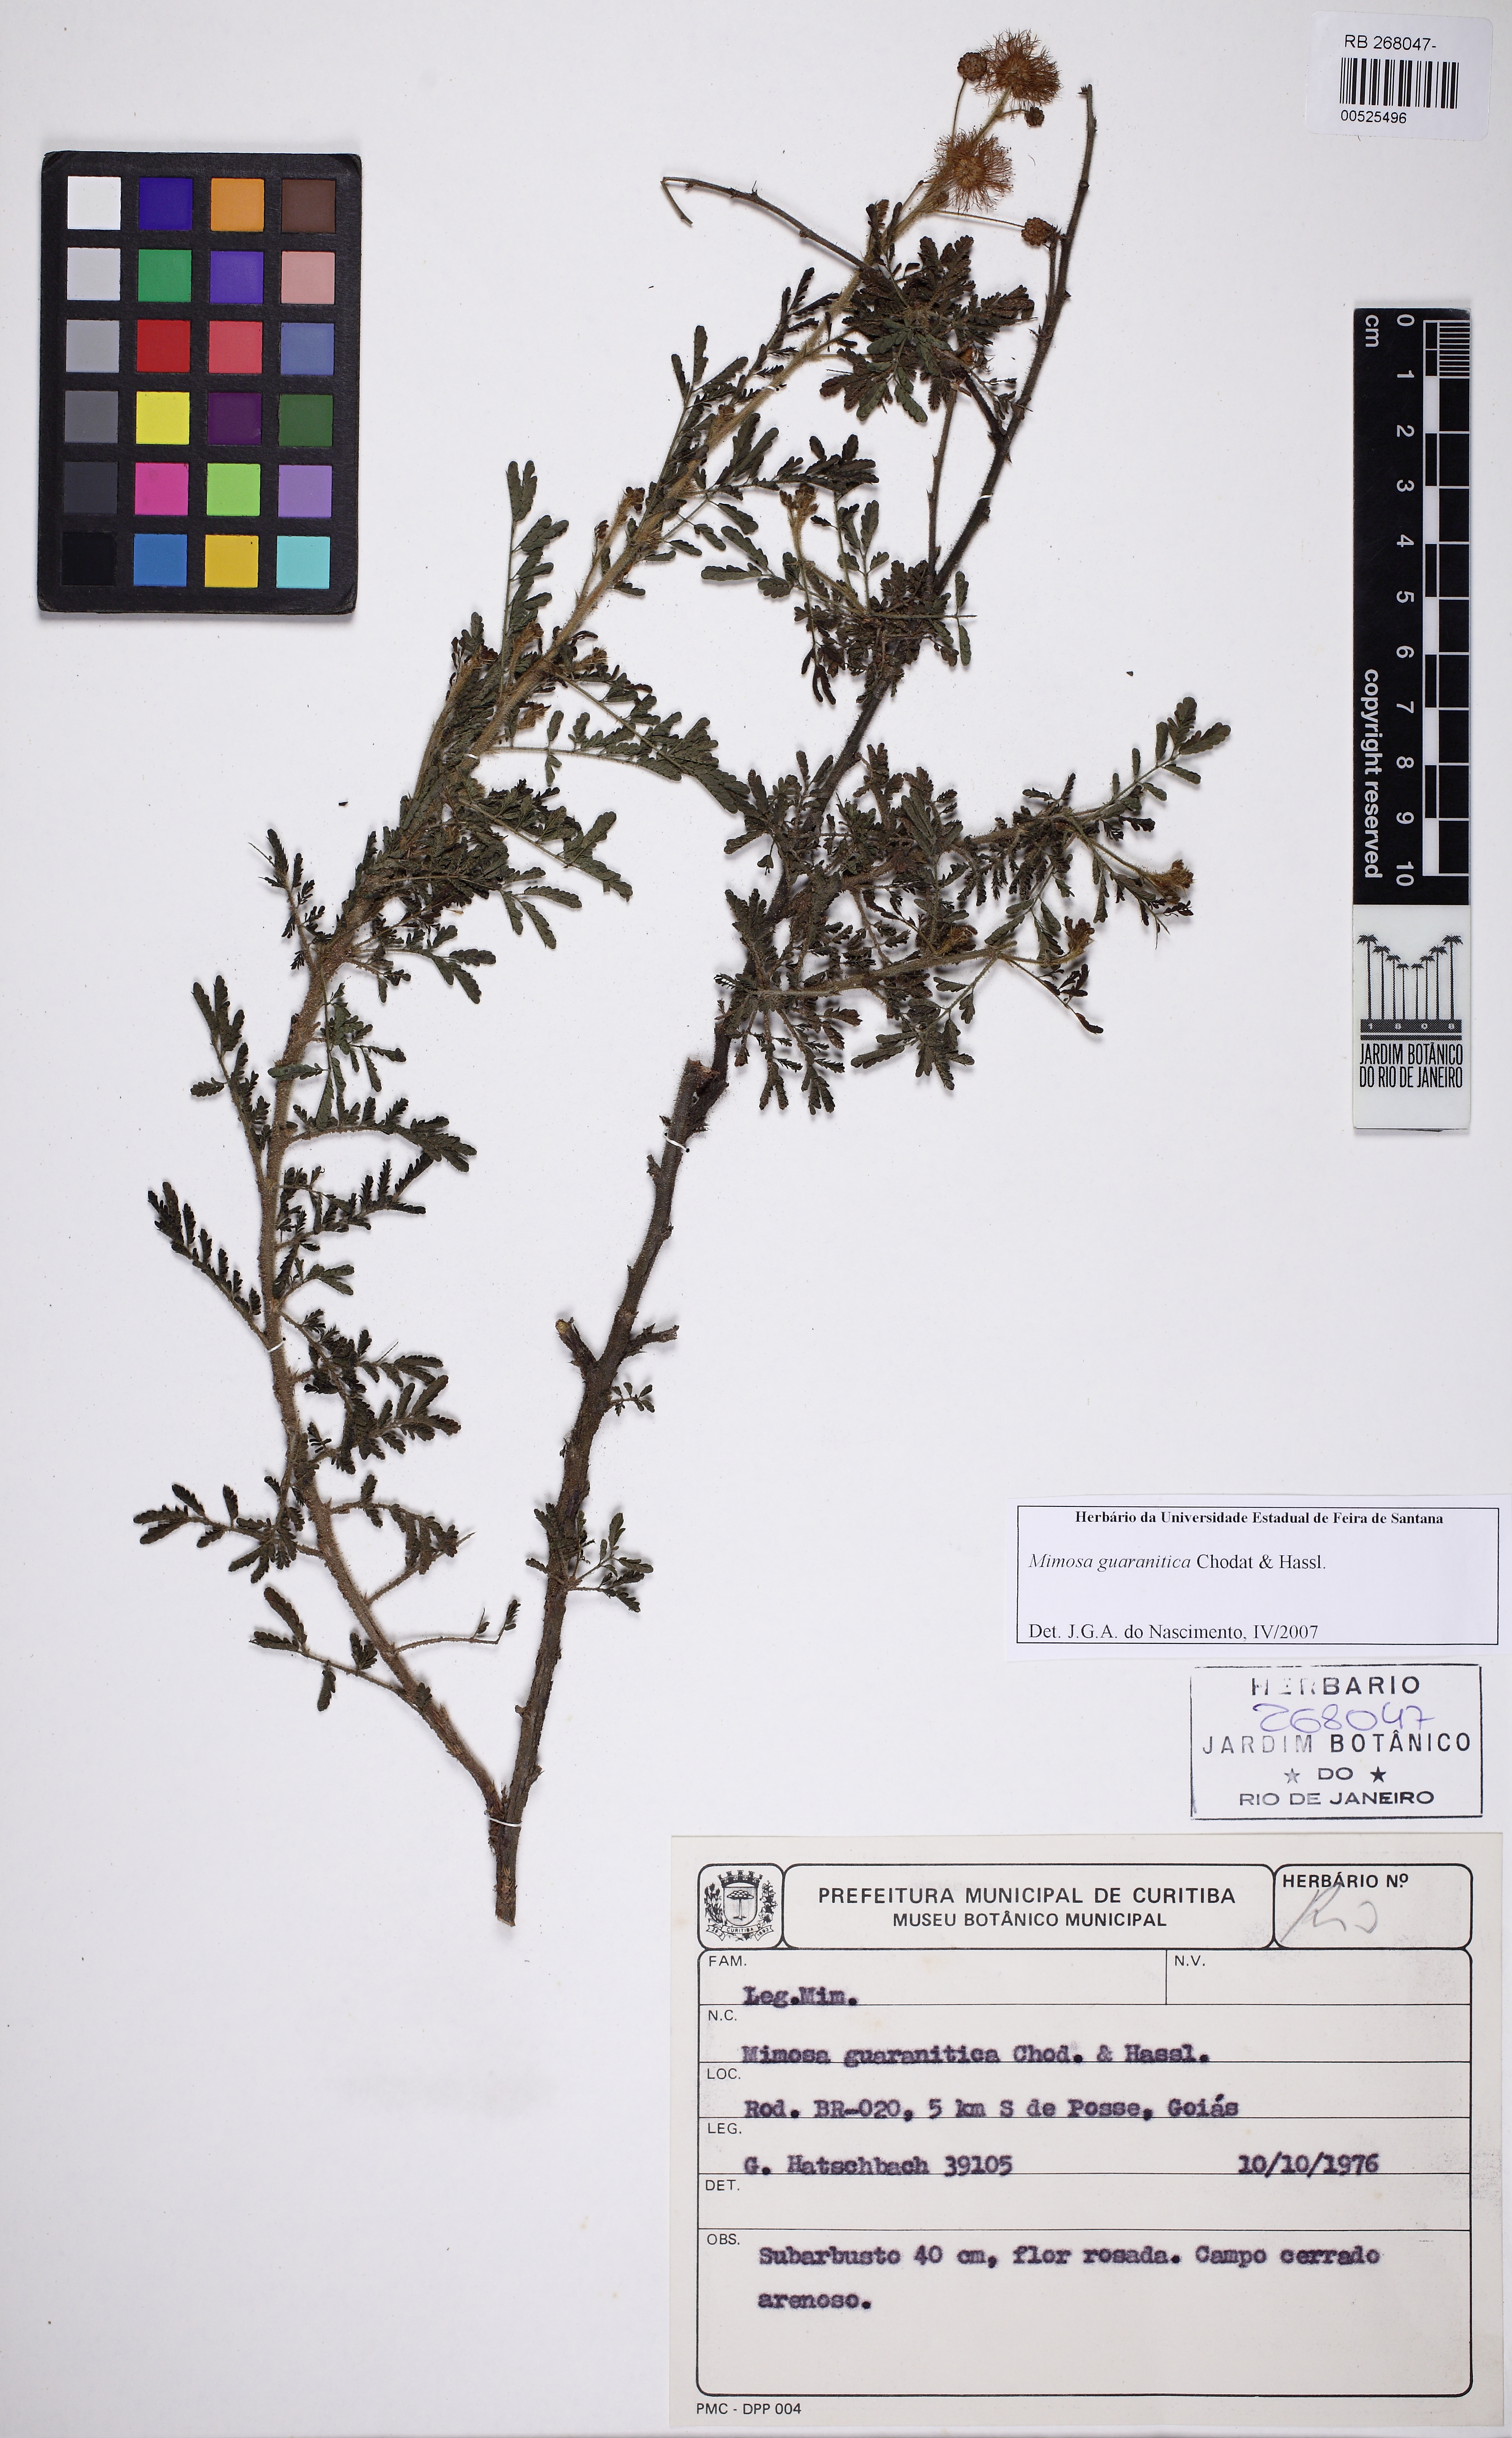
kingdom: Plantae
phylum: Tracheophyta
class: Magnoliopsida
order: Fabales
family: Fabaceae
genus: Mimosa
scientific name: Mimosa guaranitica
